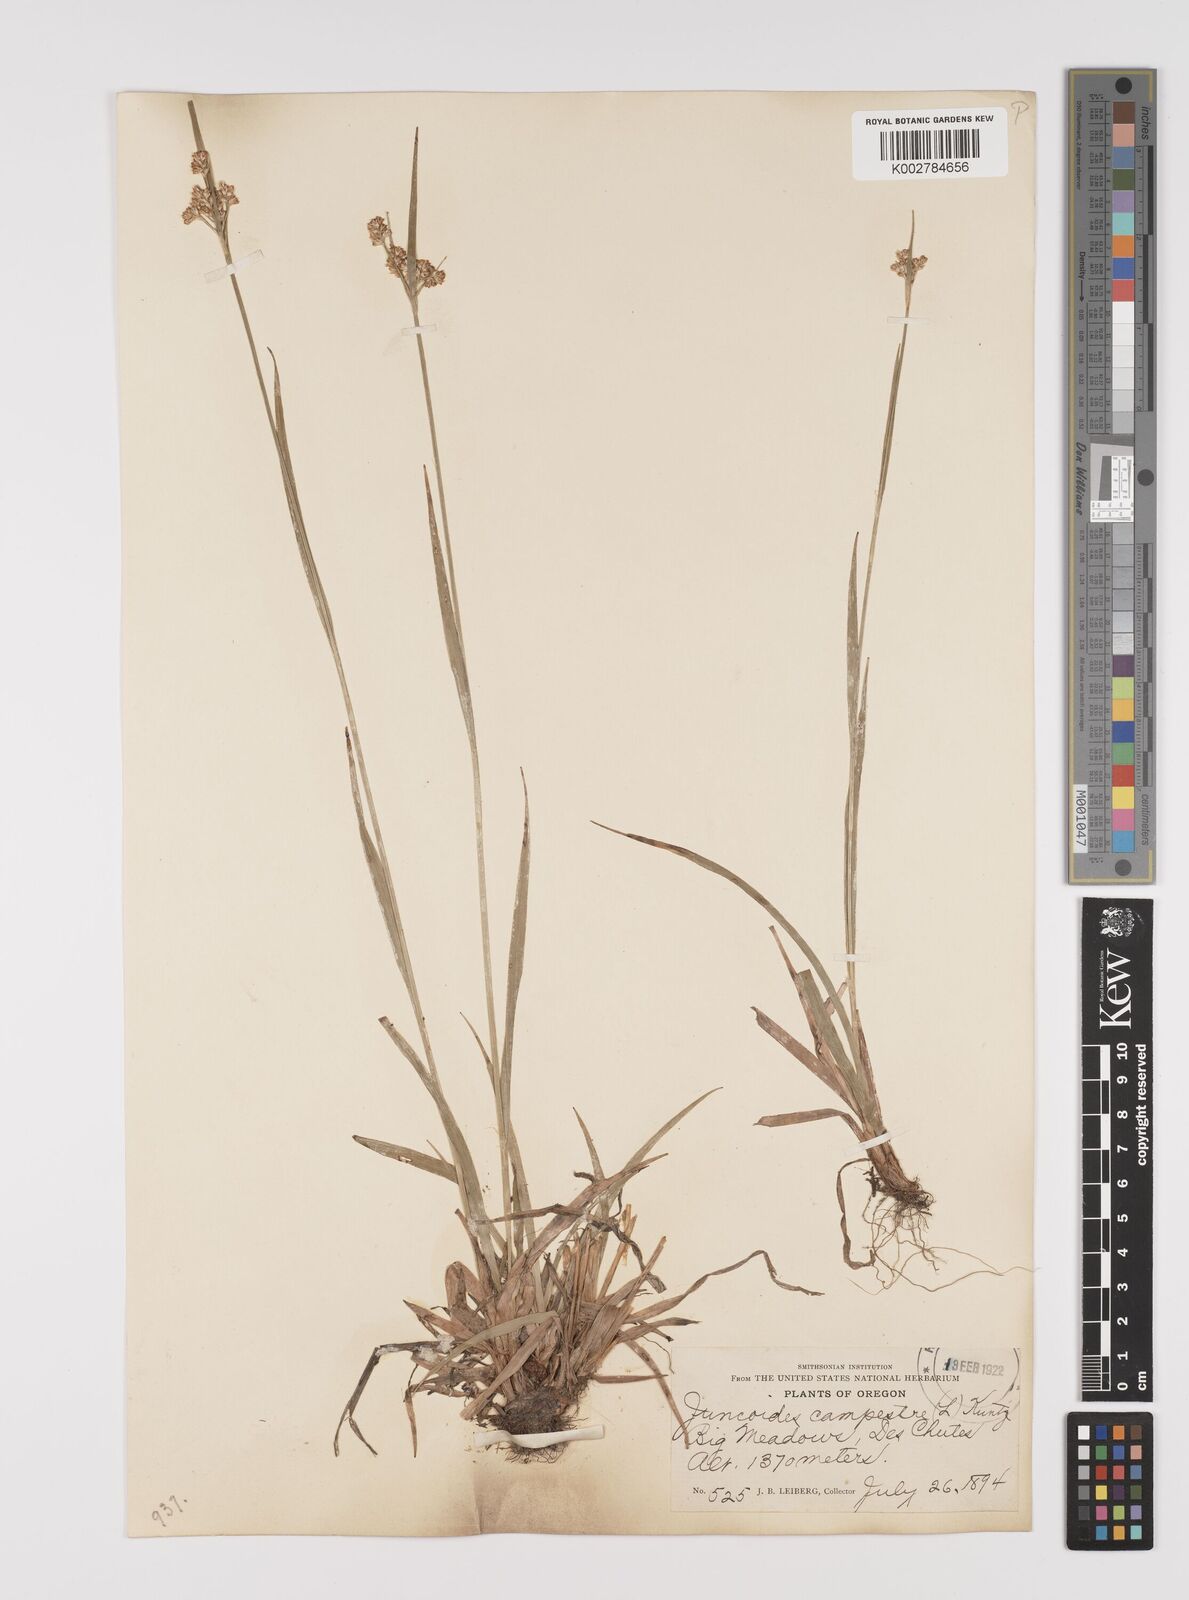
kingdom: Plantae
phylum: Tracheophyta
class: Liliopsida
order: Poales
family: Juncaceae
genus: Luzula
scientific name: Luzula campestris
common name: Field wood-rush
